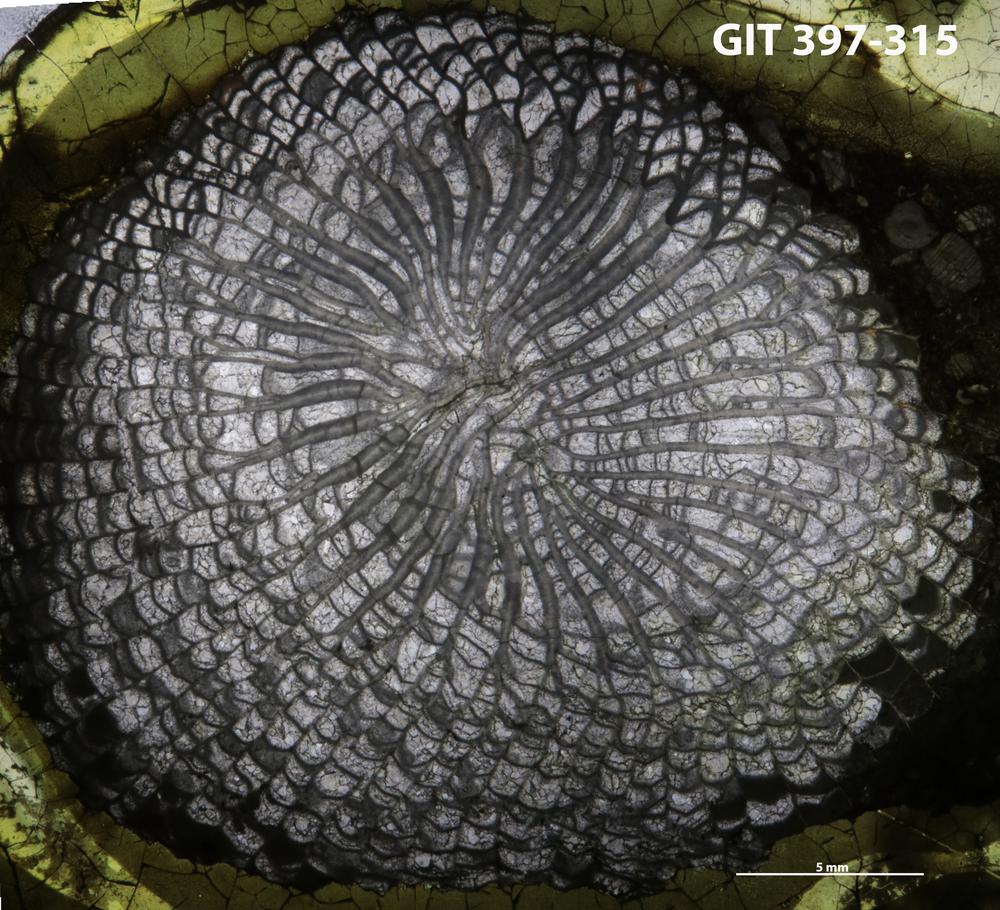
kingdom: Animalia
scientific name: Animalia
